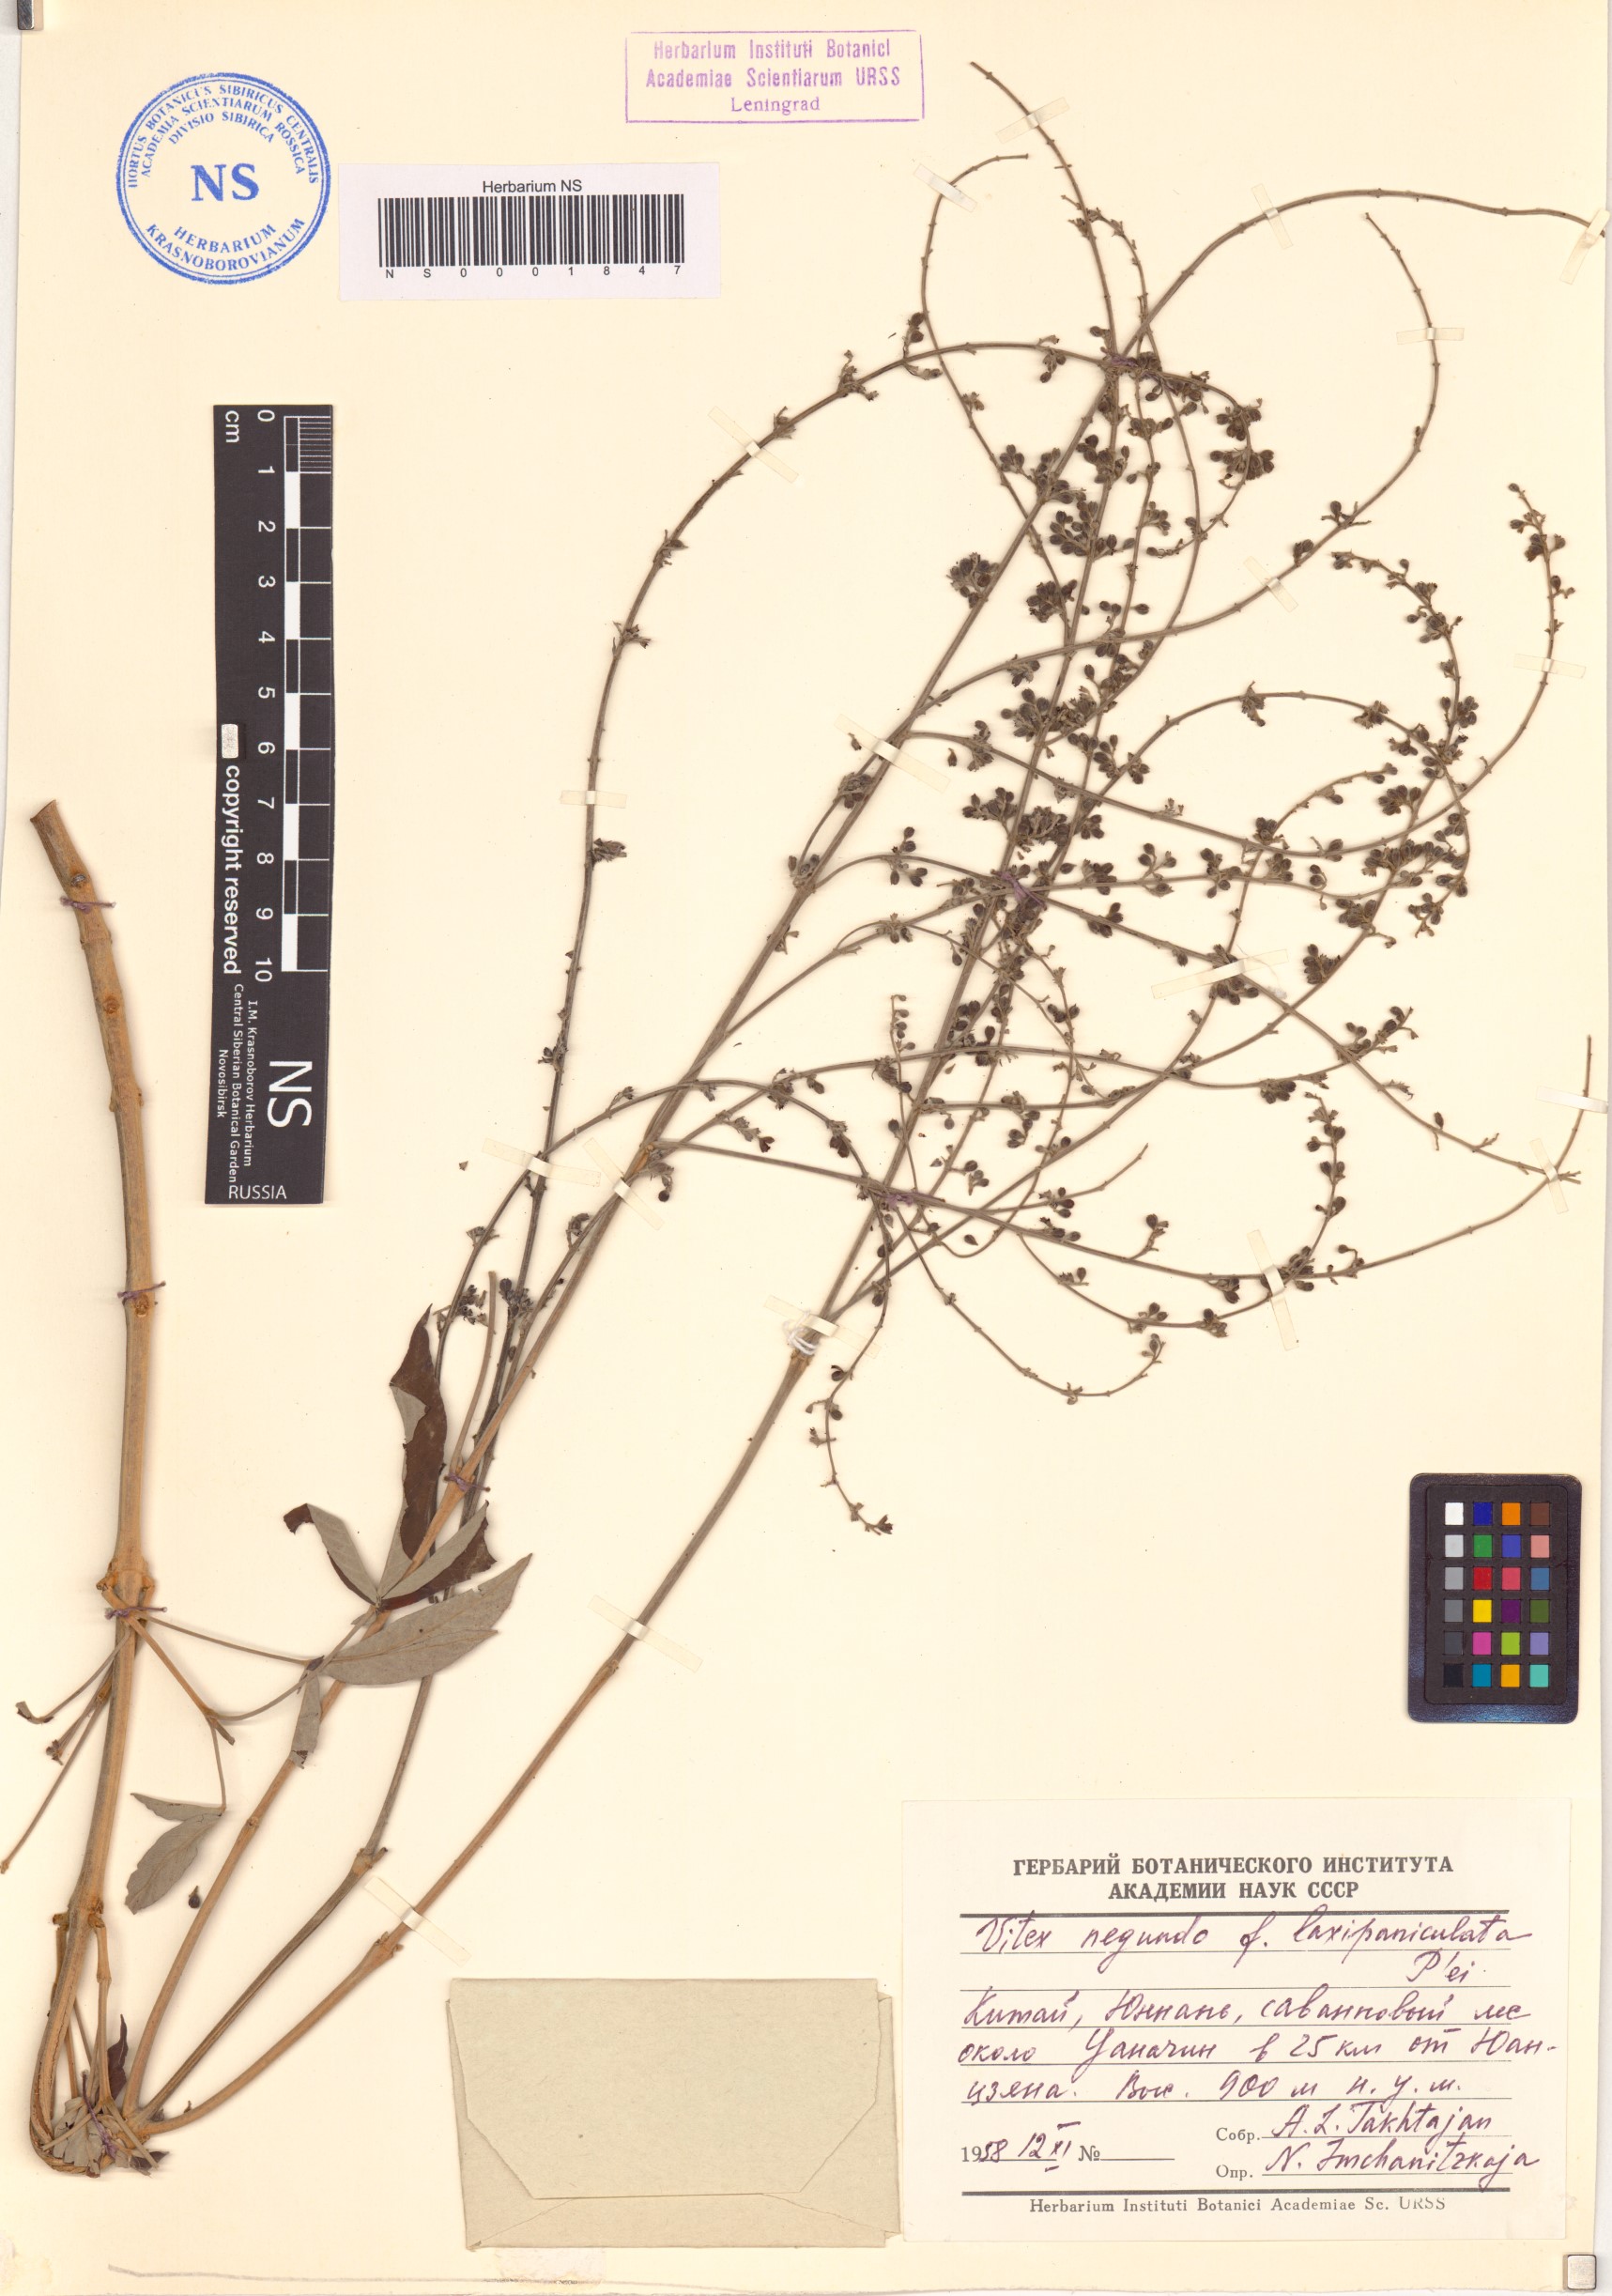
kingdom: Plantae
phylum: Tracheophyta
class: Magnoliopsida
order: Lamiales
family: Lamiaceae
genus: Vitex
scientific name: Vitex negundo
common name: Chinese chastetree
